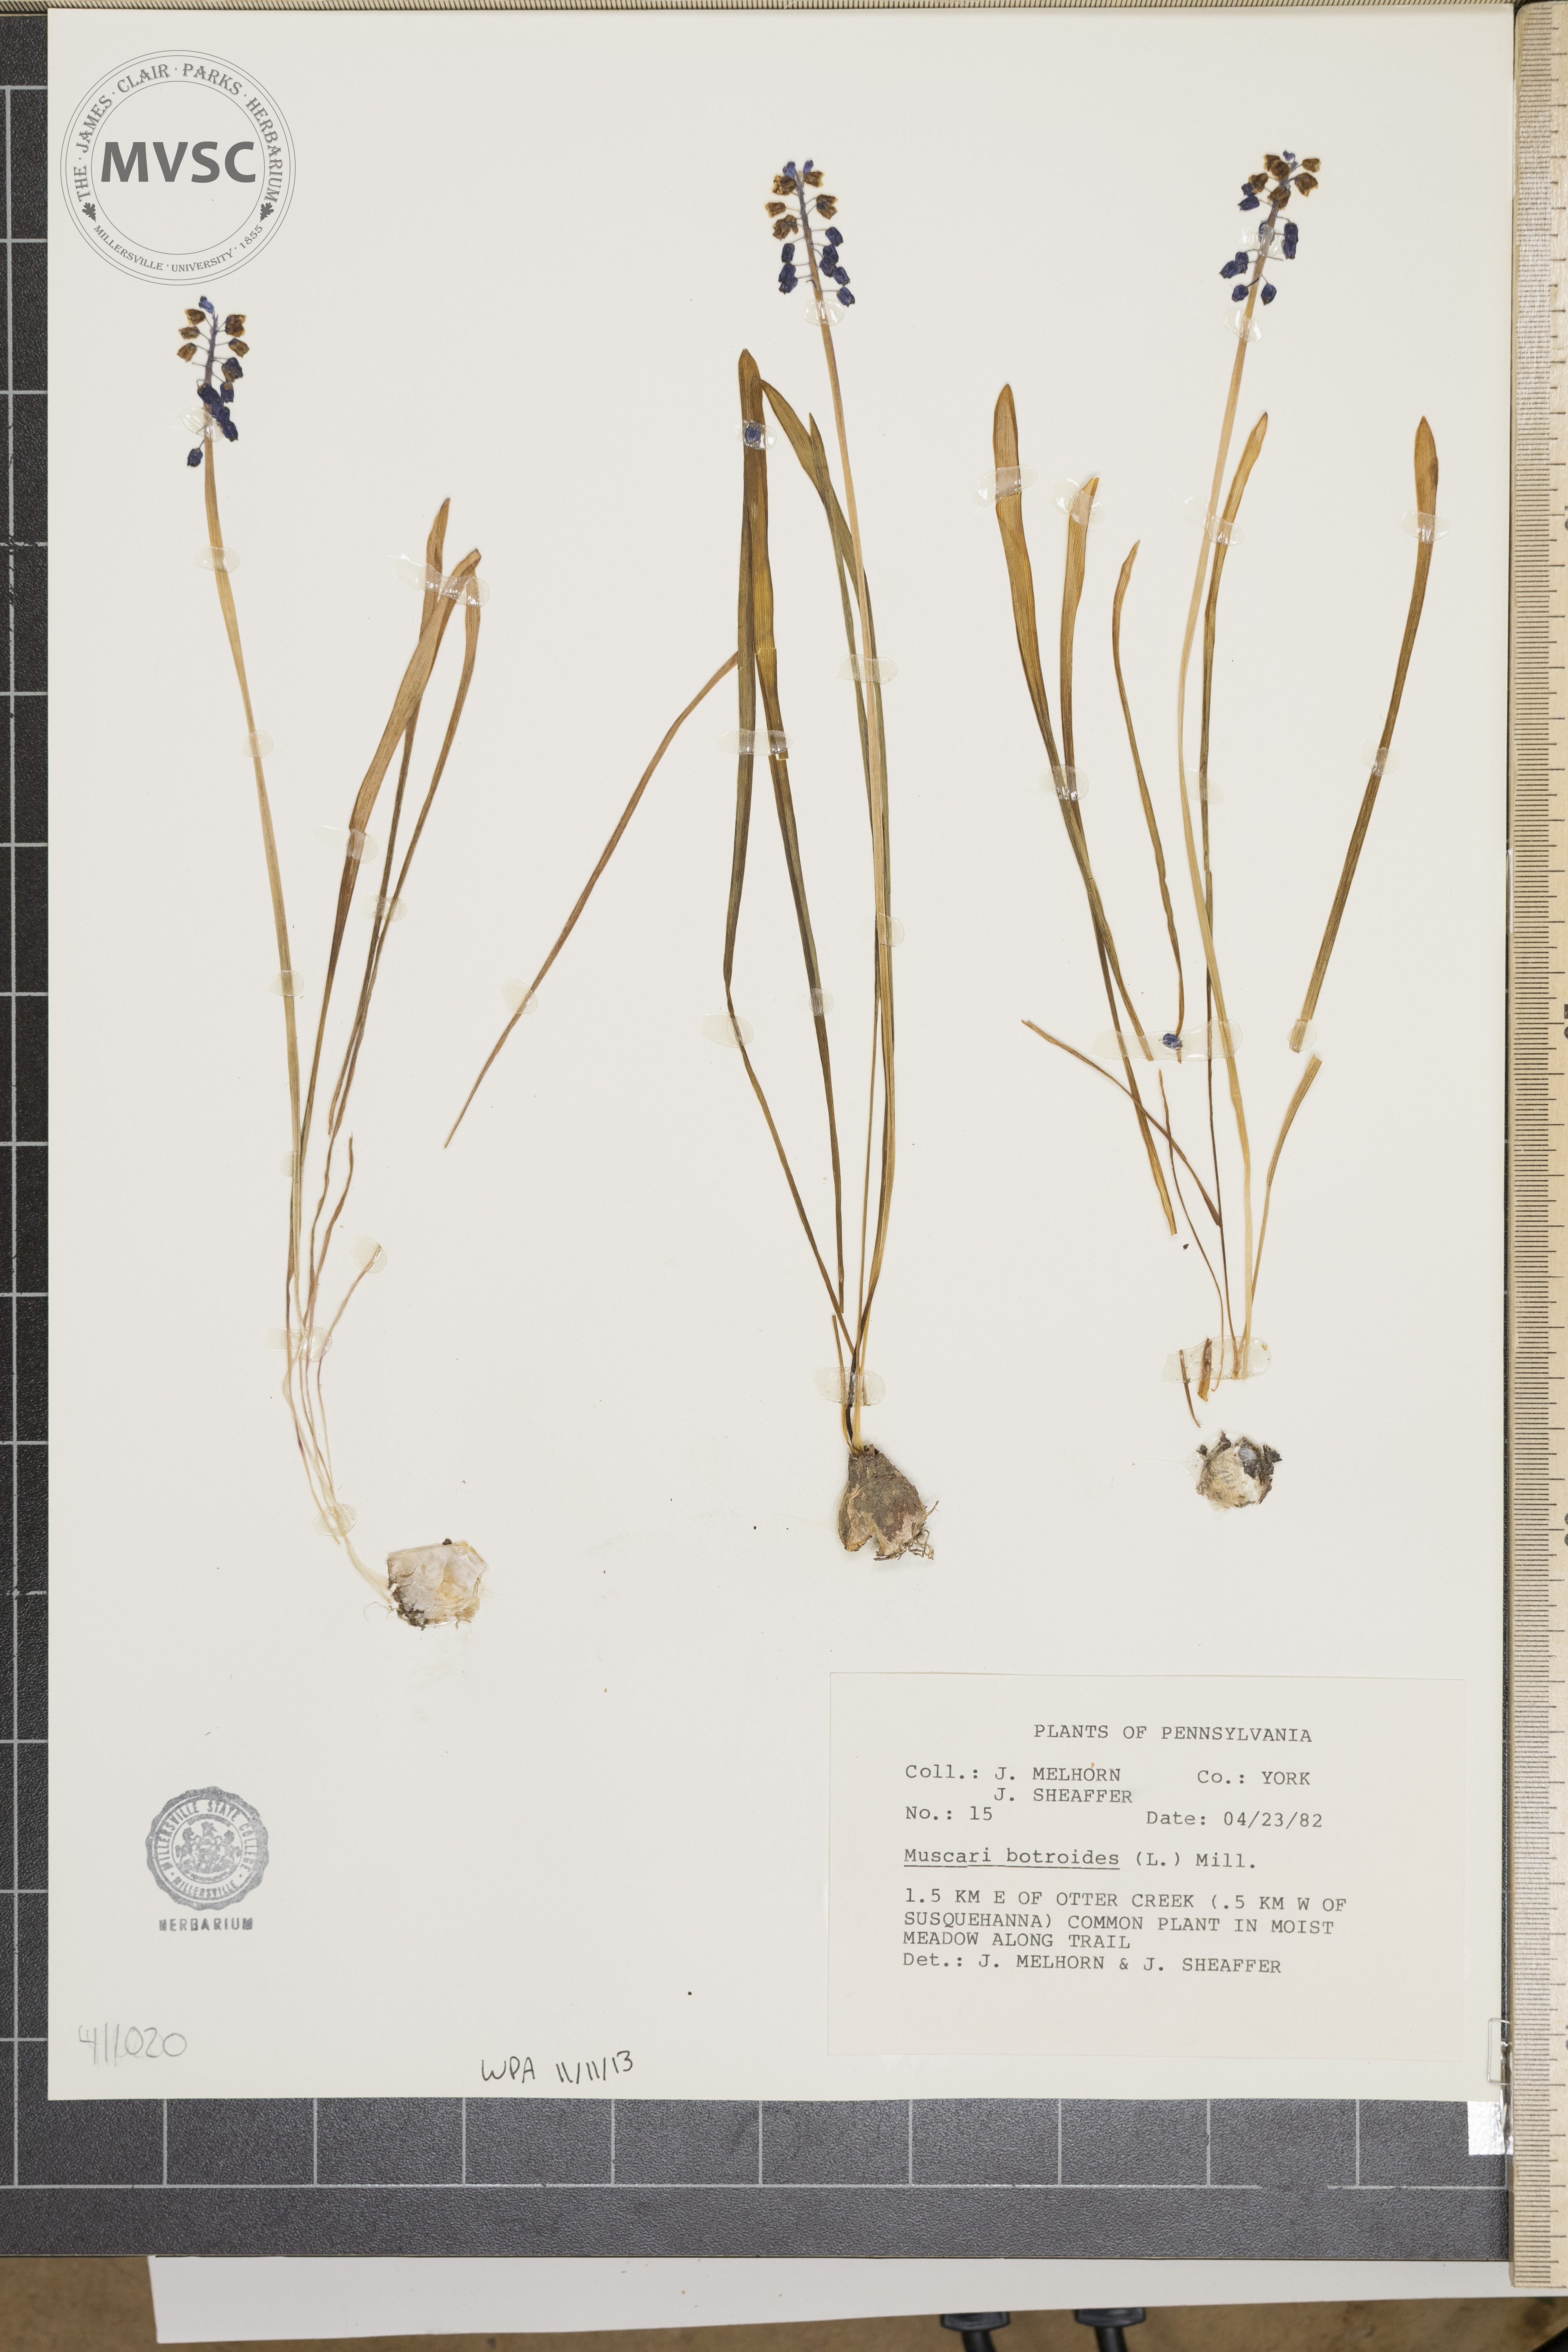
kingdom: Plantae
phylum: Tracheophyta
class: Liliopsida
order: Asparagales
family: Asparagaceae
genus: Muscari
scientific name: Muscari botryoides
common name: Compact grape-hyacinth
